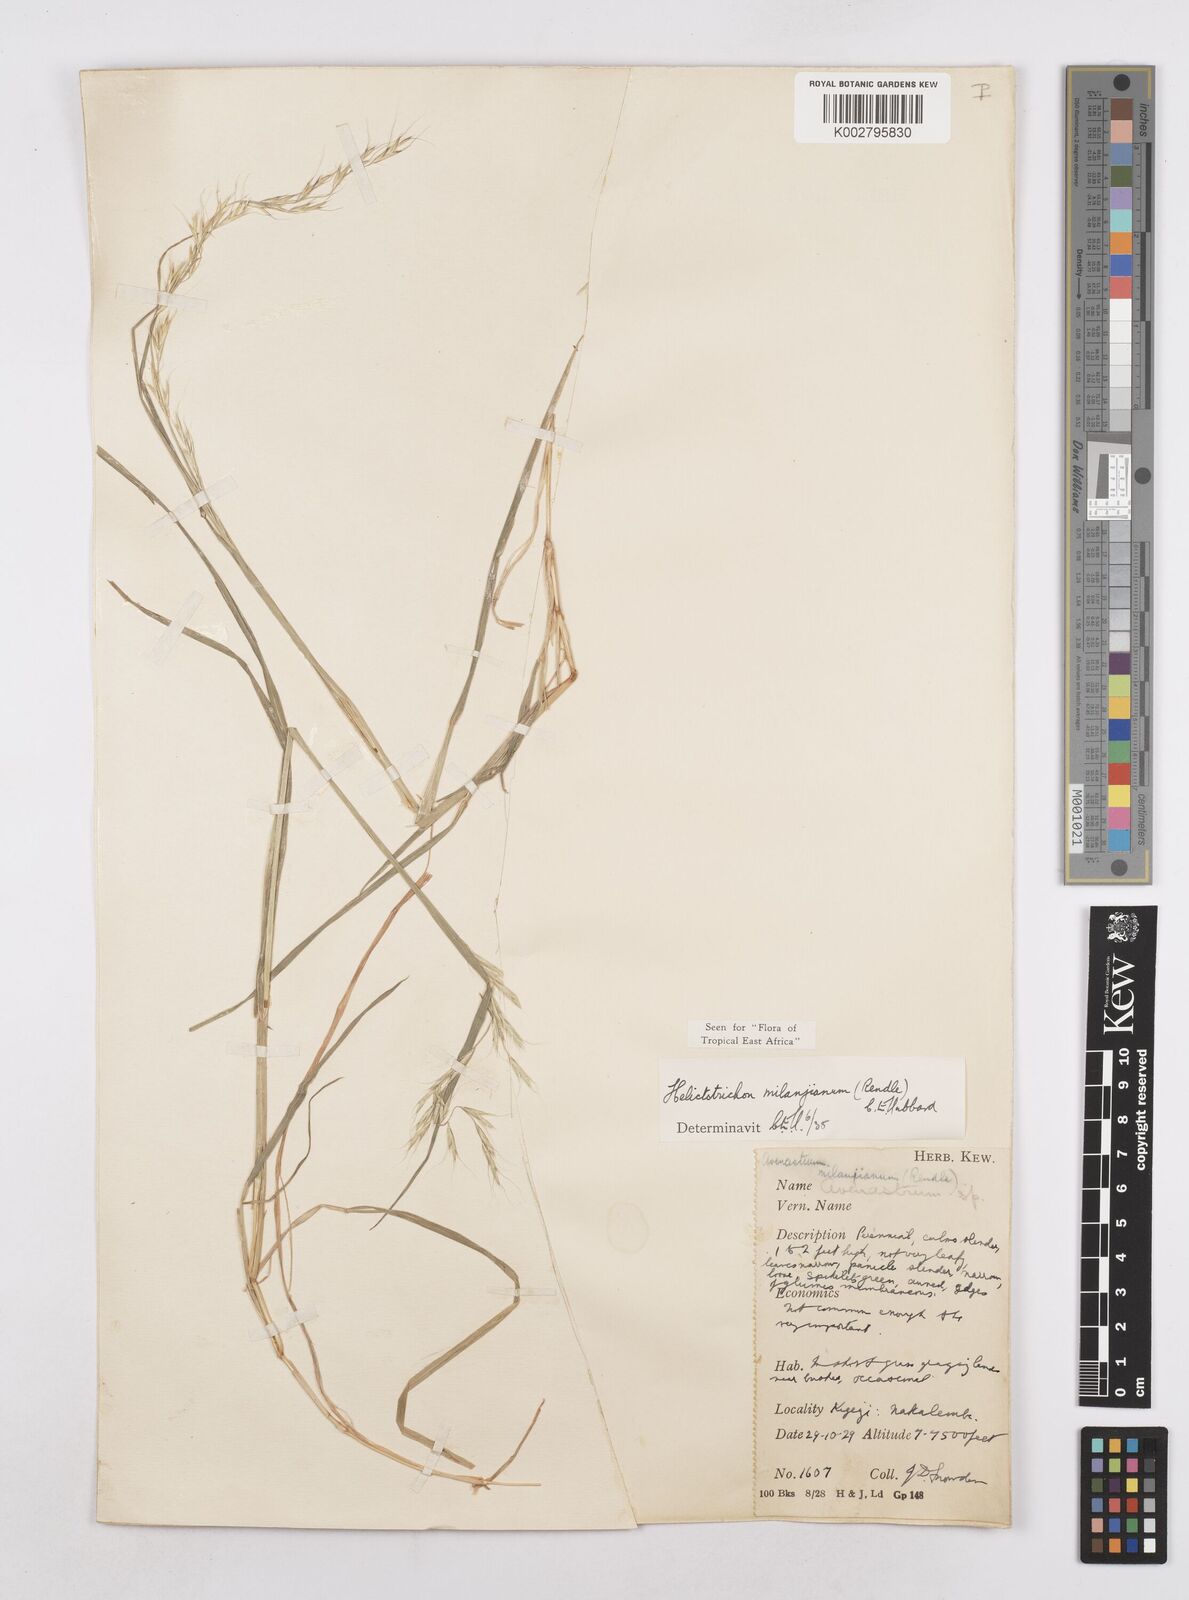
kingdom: Plantae
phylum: Tracheophyta
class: Liliopsida
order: Poales
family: Poaceae
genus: Trisetopsis
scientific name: Trisetopsis milanjiana
